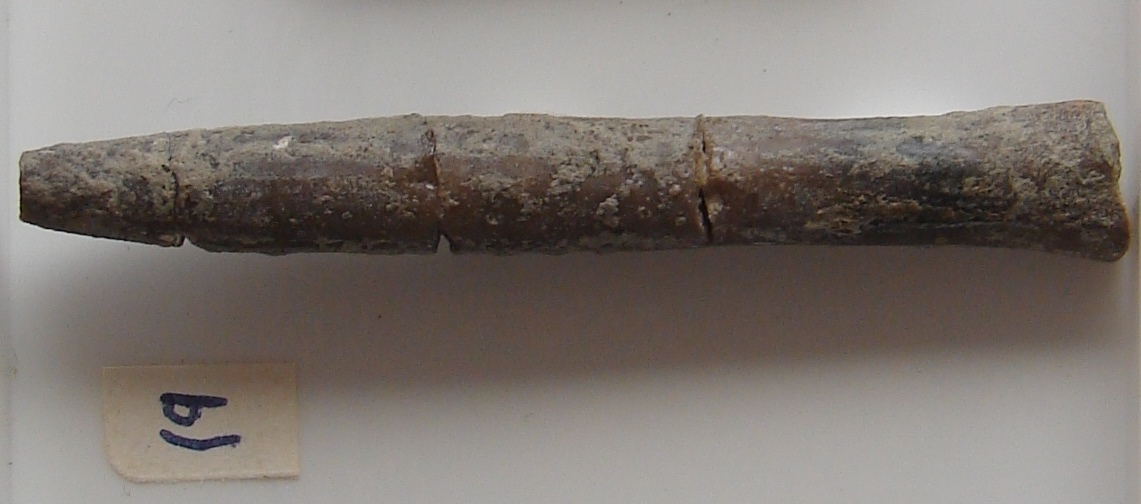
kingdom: Animalia
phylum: Mollusca
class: Cephalopoda
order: Belemnitida
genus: Bairstowius
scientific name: Bairstowius
